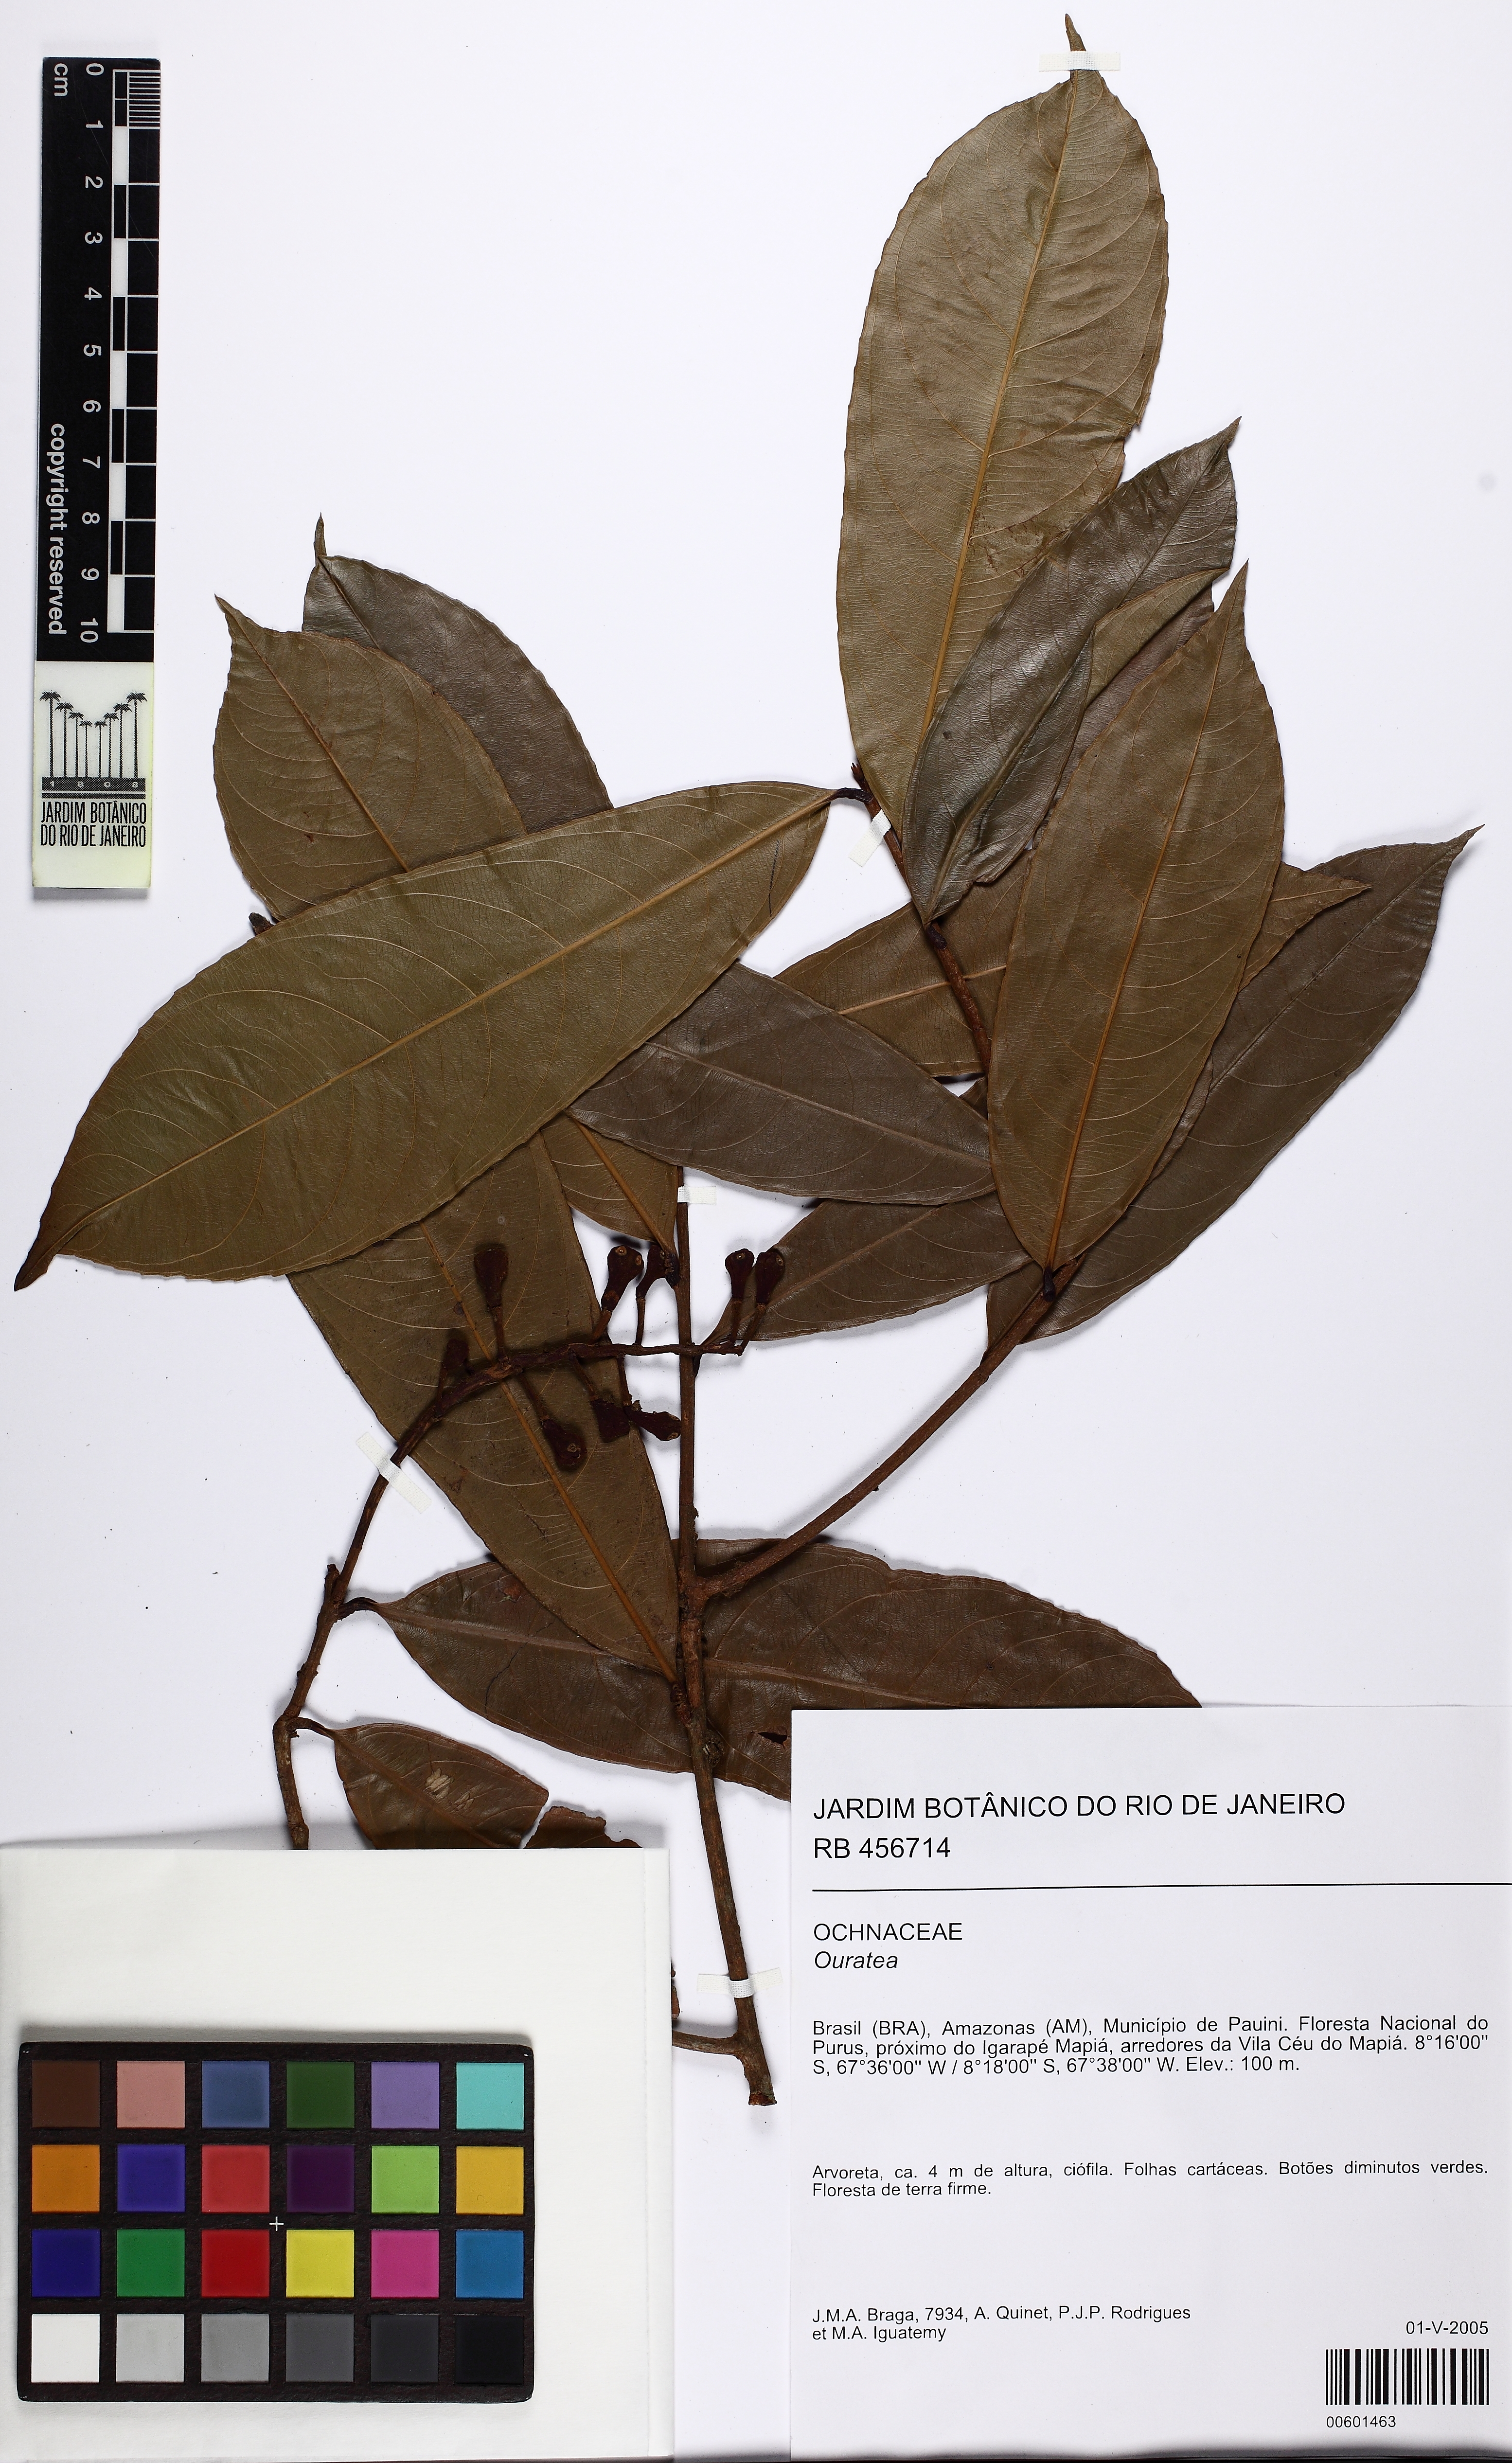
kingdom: Plantae
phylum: Tracheophyta
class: Magnoliopsida
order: Malpighiales
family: Ochnaceae
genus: Ouratea
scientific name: Ouratea
